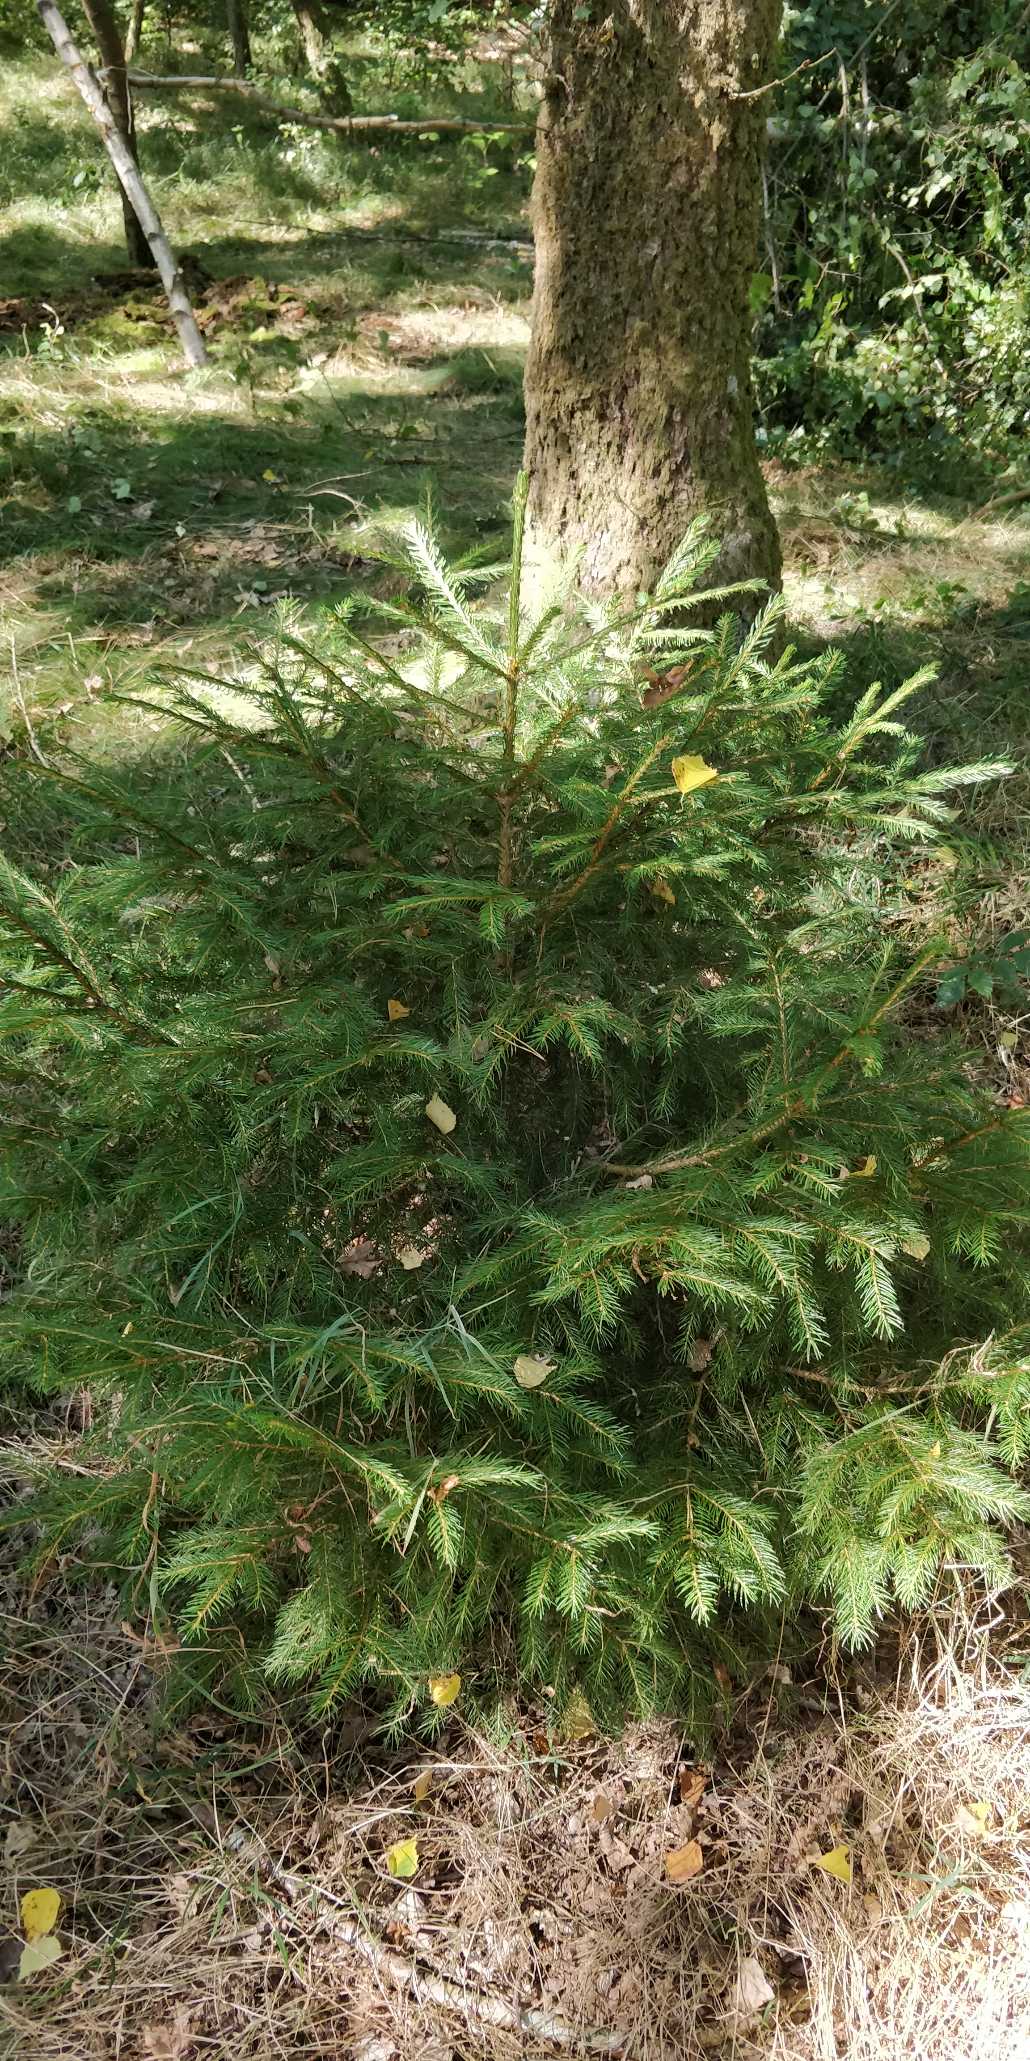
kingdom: Plantae
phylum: Tracheophyta
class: Pinopsida
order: Pinales
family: Pinaceae
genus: Picea
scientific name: Picea abies
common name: Rød-gran
